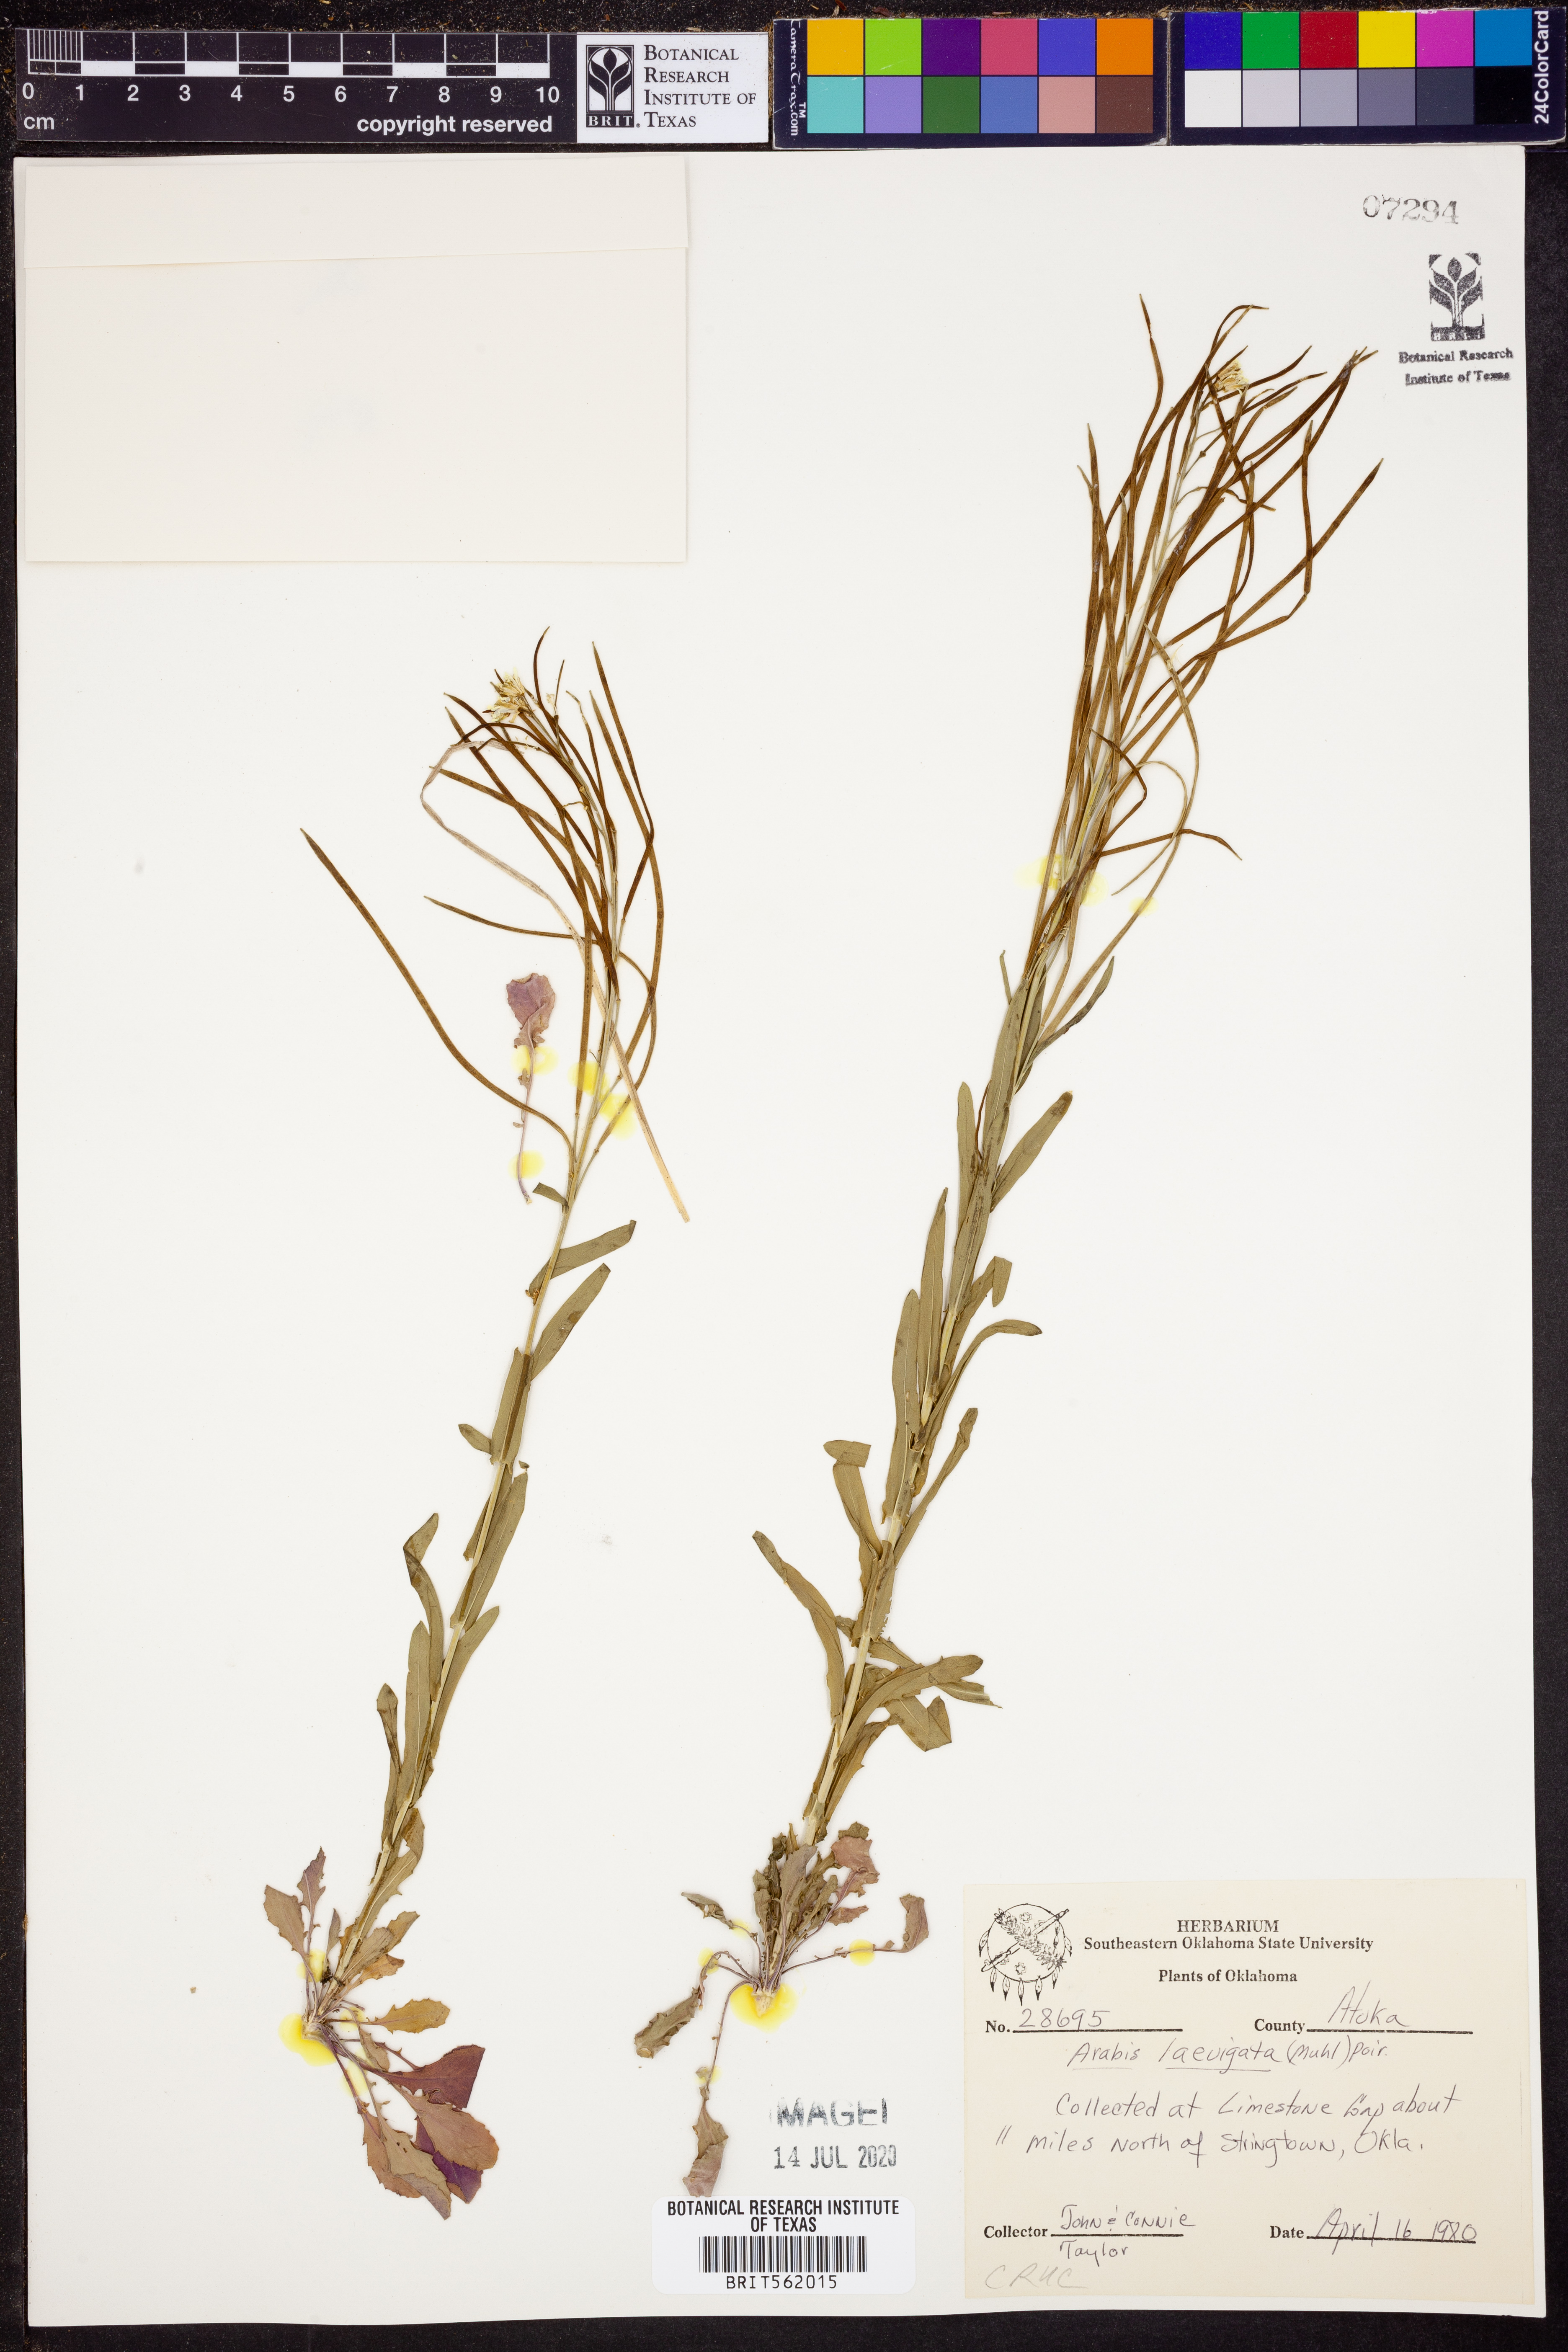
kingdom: Plantae
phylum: Tracheophyta
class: Magnoliopsida
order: Brassicales
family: Brassicaceae
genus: Arabis
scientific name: Arabis laevigata
